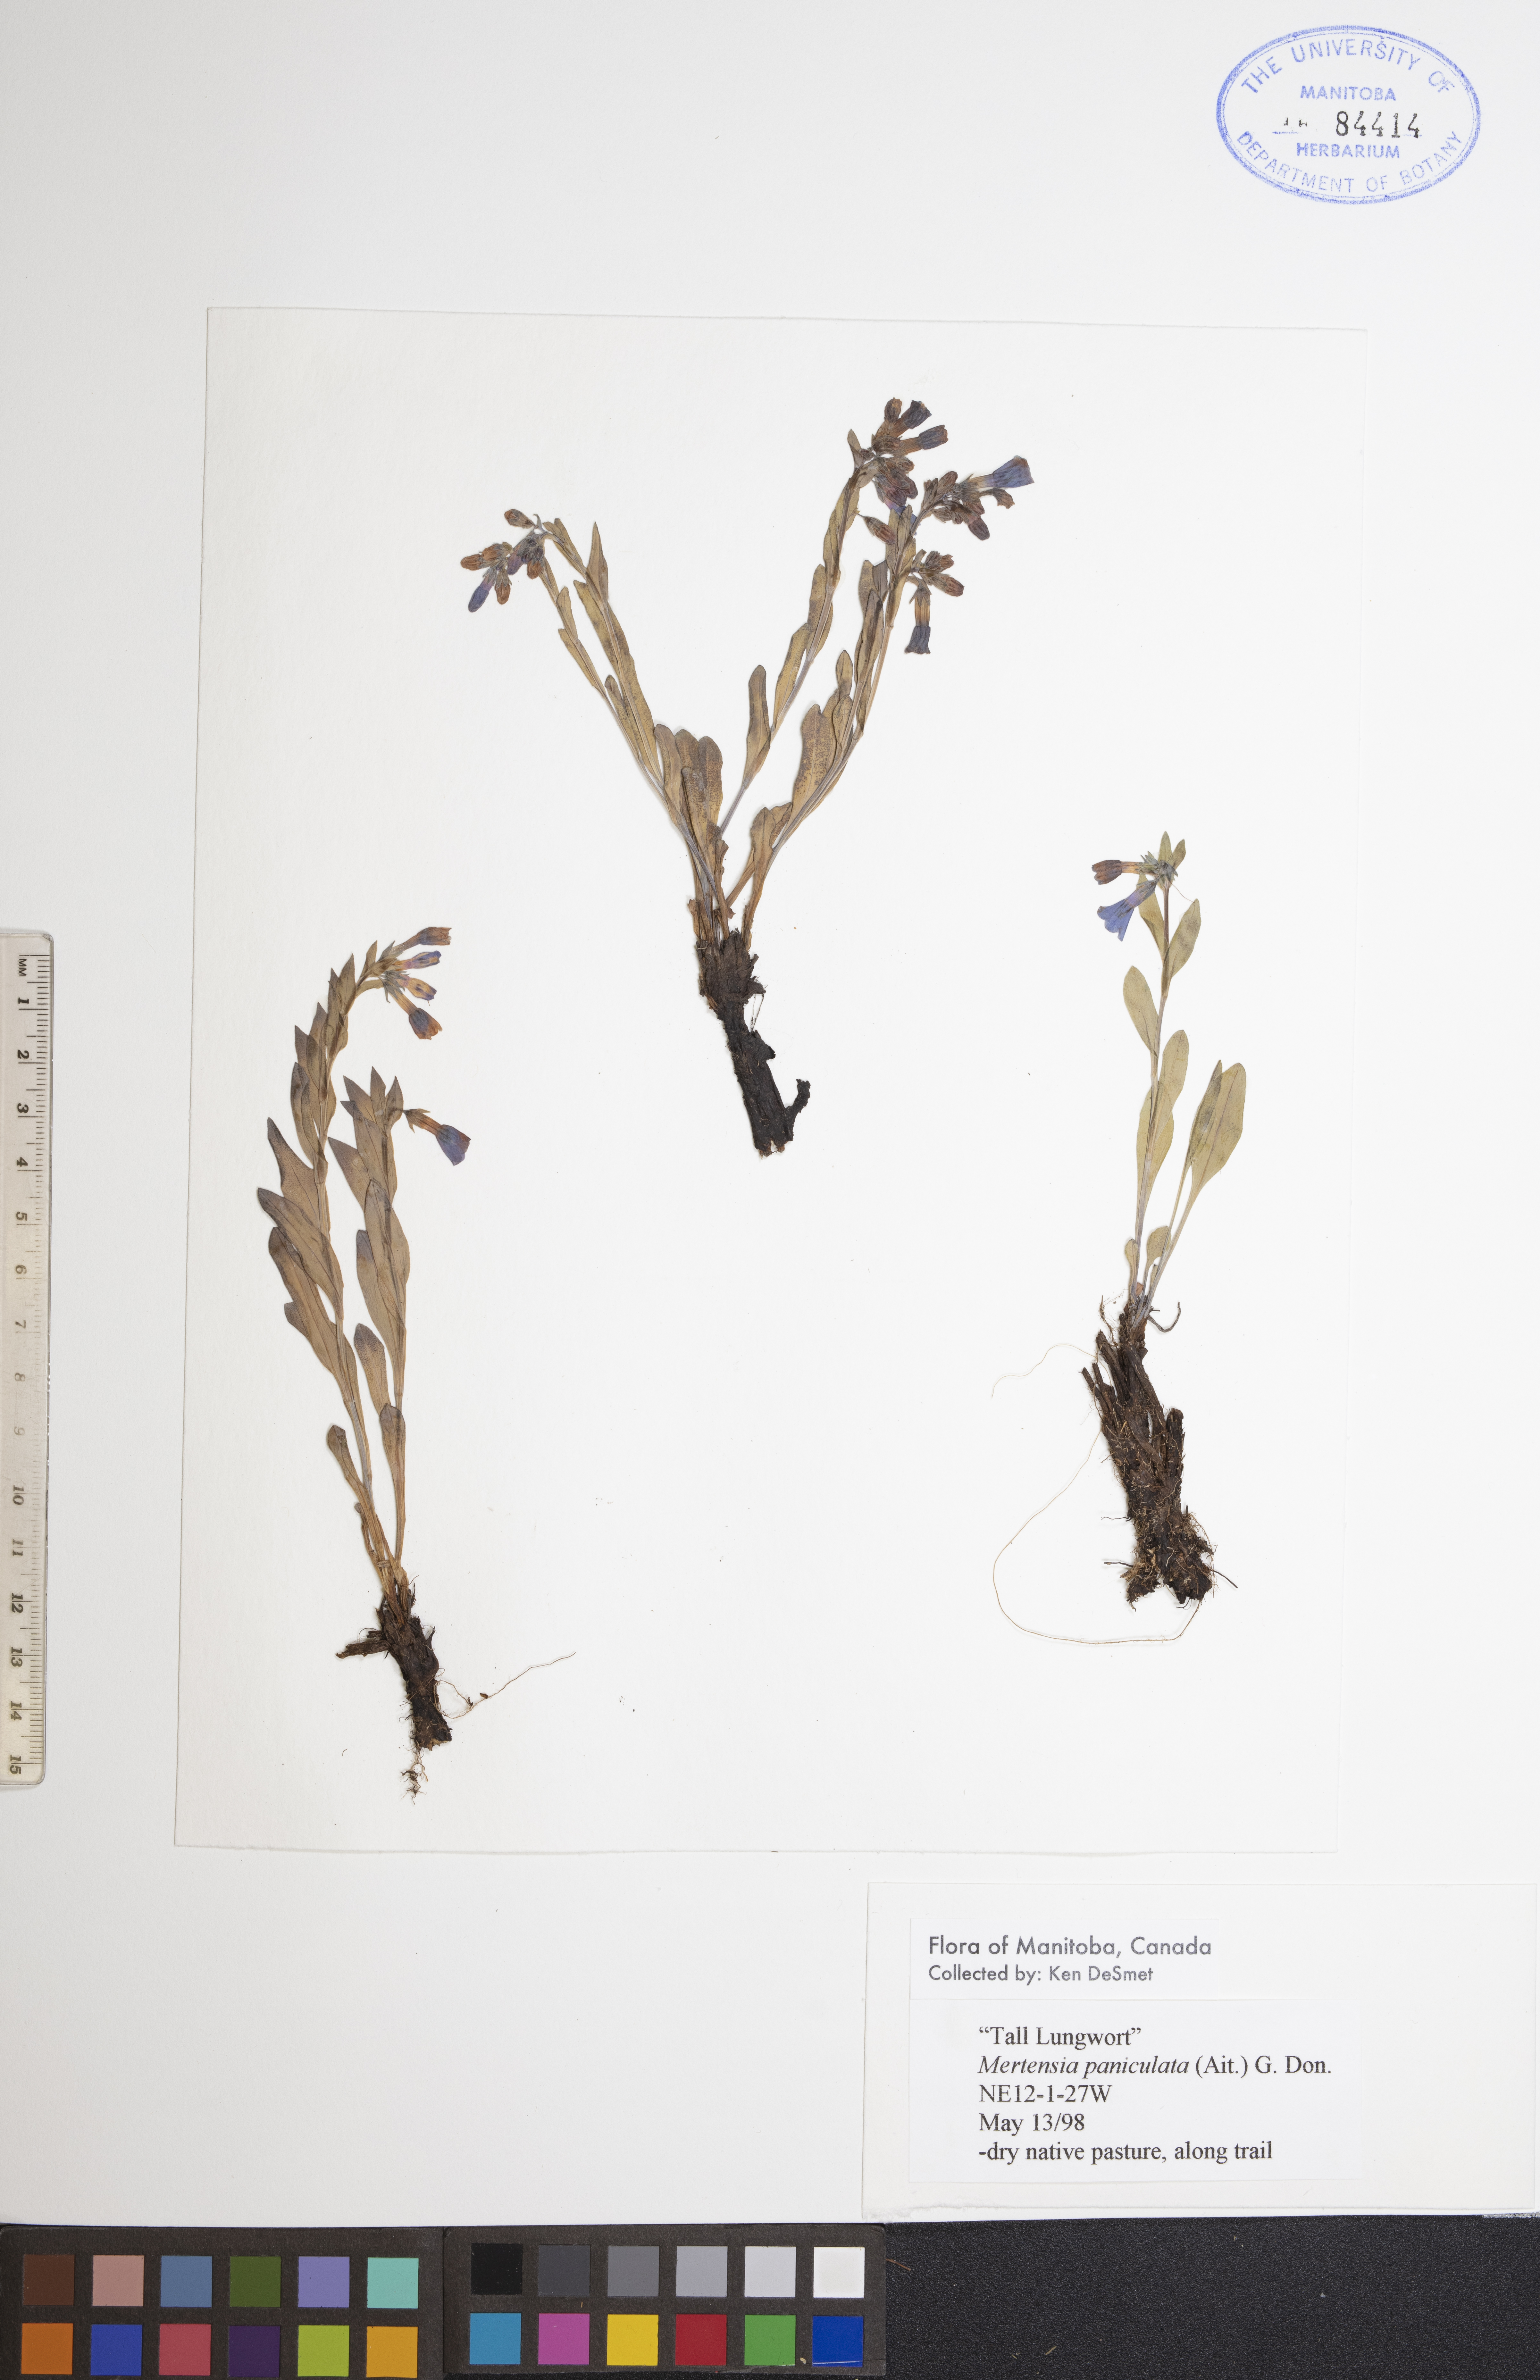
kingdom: Plantae
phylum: Tracheophyta
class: Magnoliopsida
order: Boraginales
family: Boraginaceae
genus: Mertensia
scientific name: Mertensia paniculata
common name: Panicled bluebells
